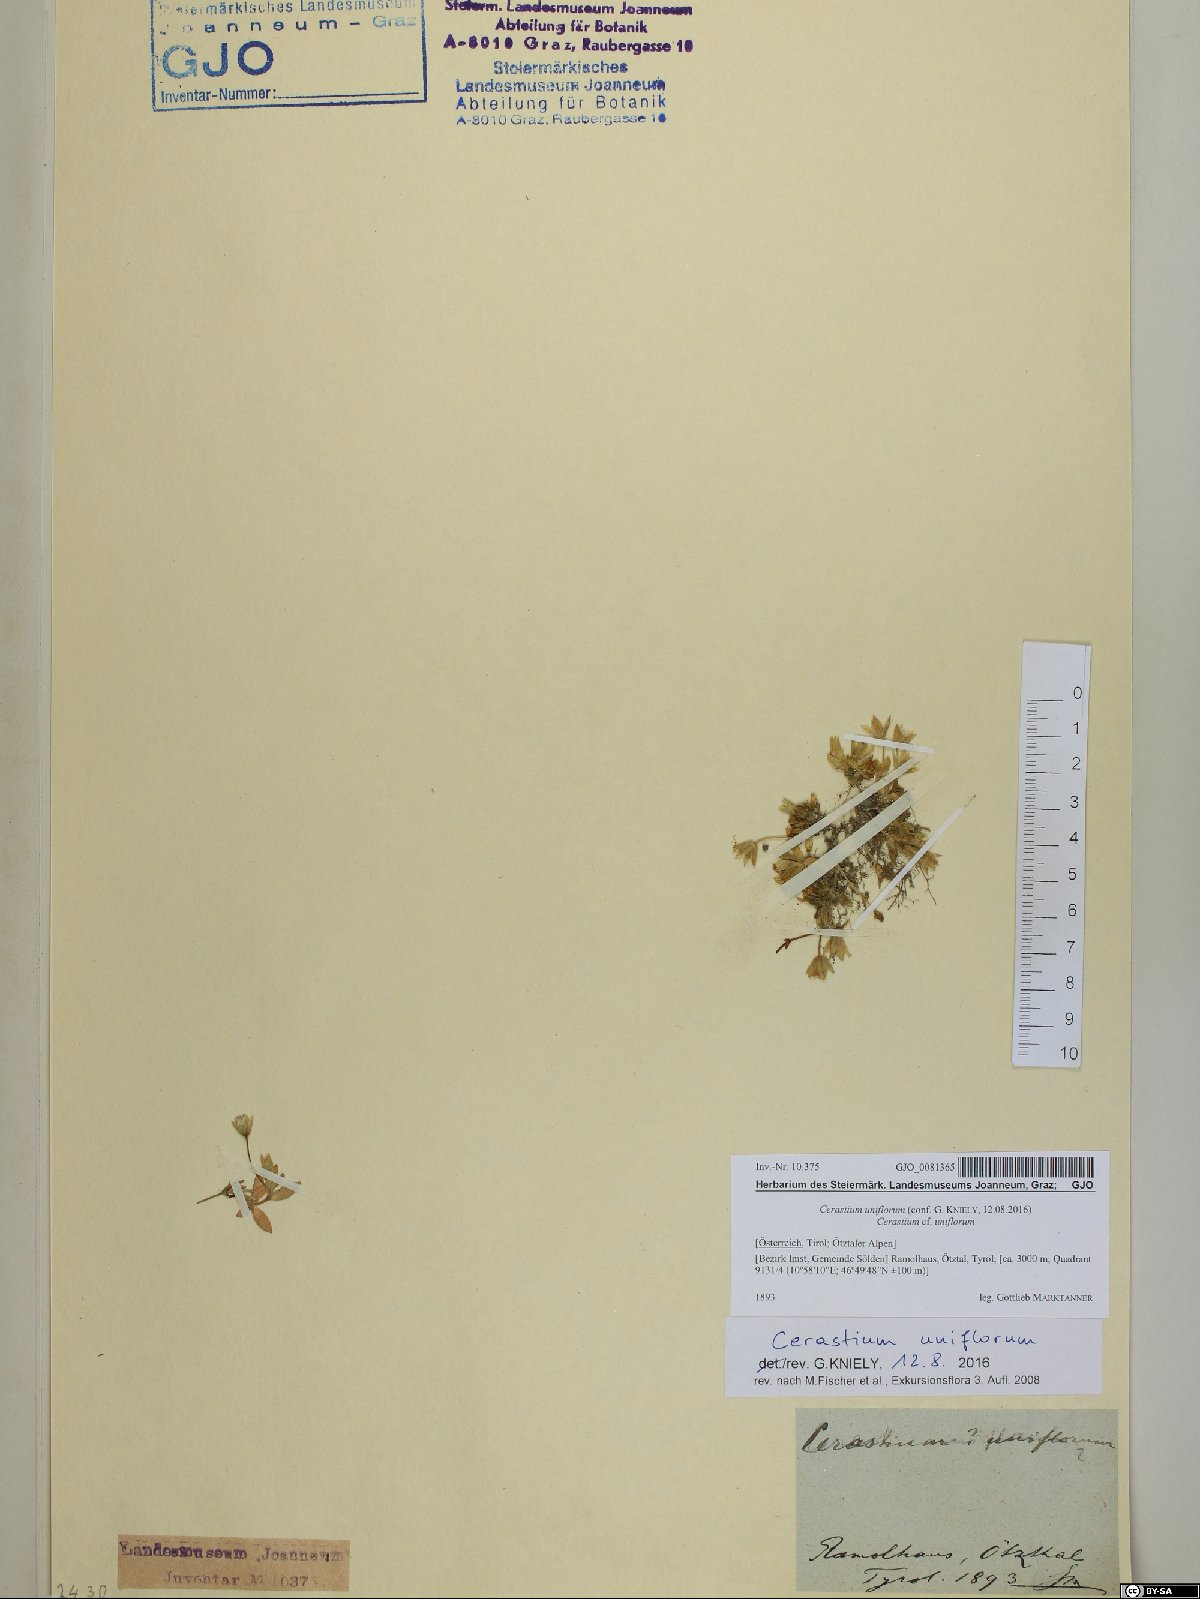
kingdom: Plantae
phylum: Tracheophyta
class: Magnoliopsida
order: Caryophyllales
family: Caryophyllaceae
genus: Cerastium
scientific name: Cerastium uniflorum
